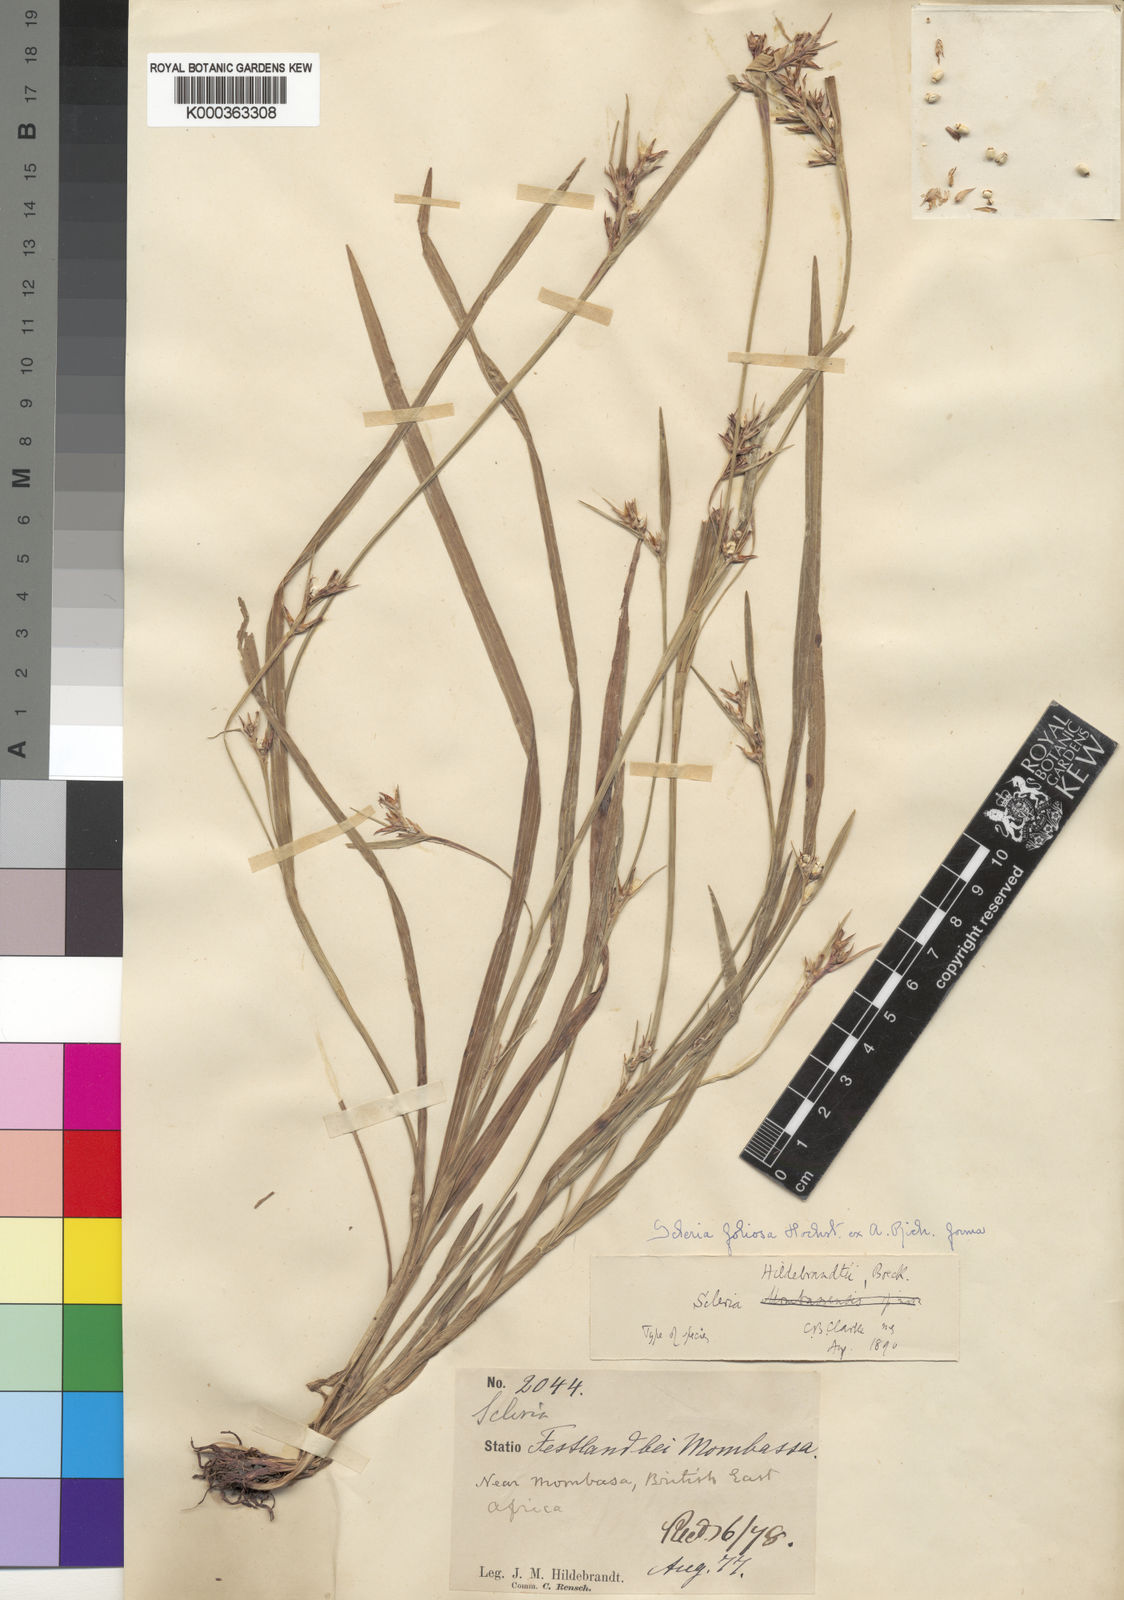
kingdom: Plantae
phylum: Tracheophyta
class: Liliopsida
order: Poales
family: Cyperaceae
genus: Scleria
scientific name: Scleria hildebrandtii
